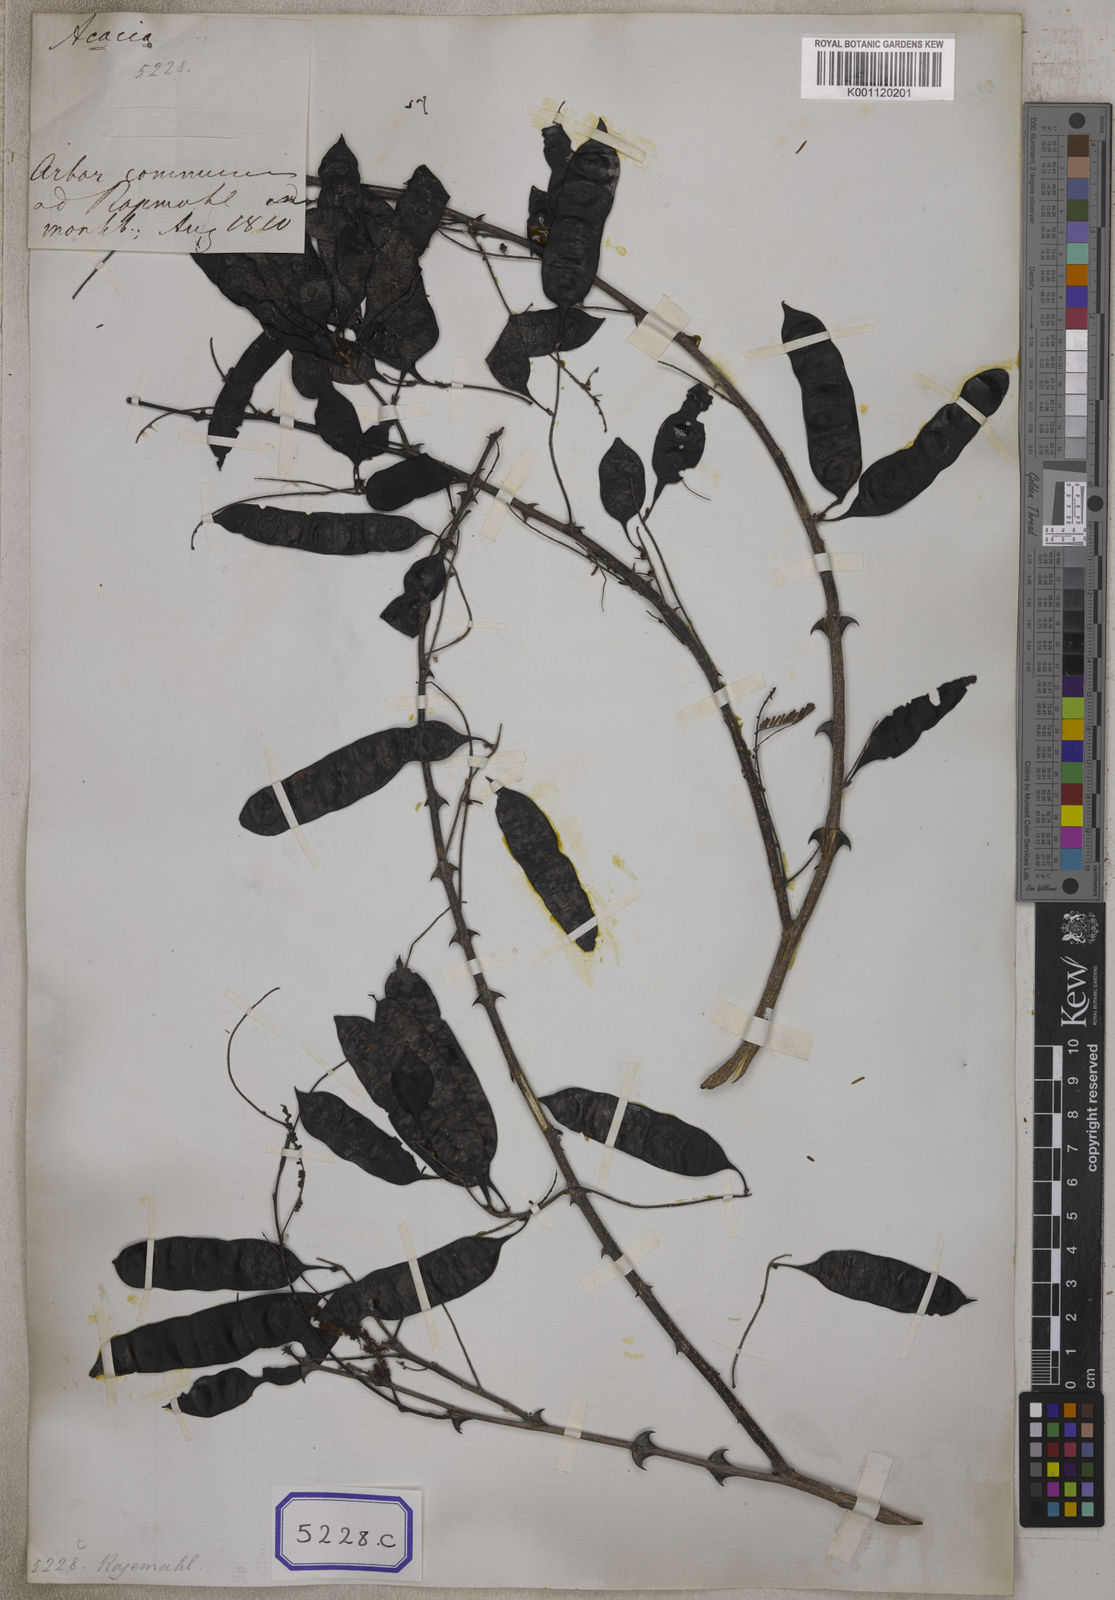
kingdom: Plantae
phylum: Tracheophyta
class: Magnoliopsida
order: Fabales
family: Fabaceae
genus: Senegalia
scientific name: Senegalia catechu
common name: Black cutch
